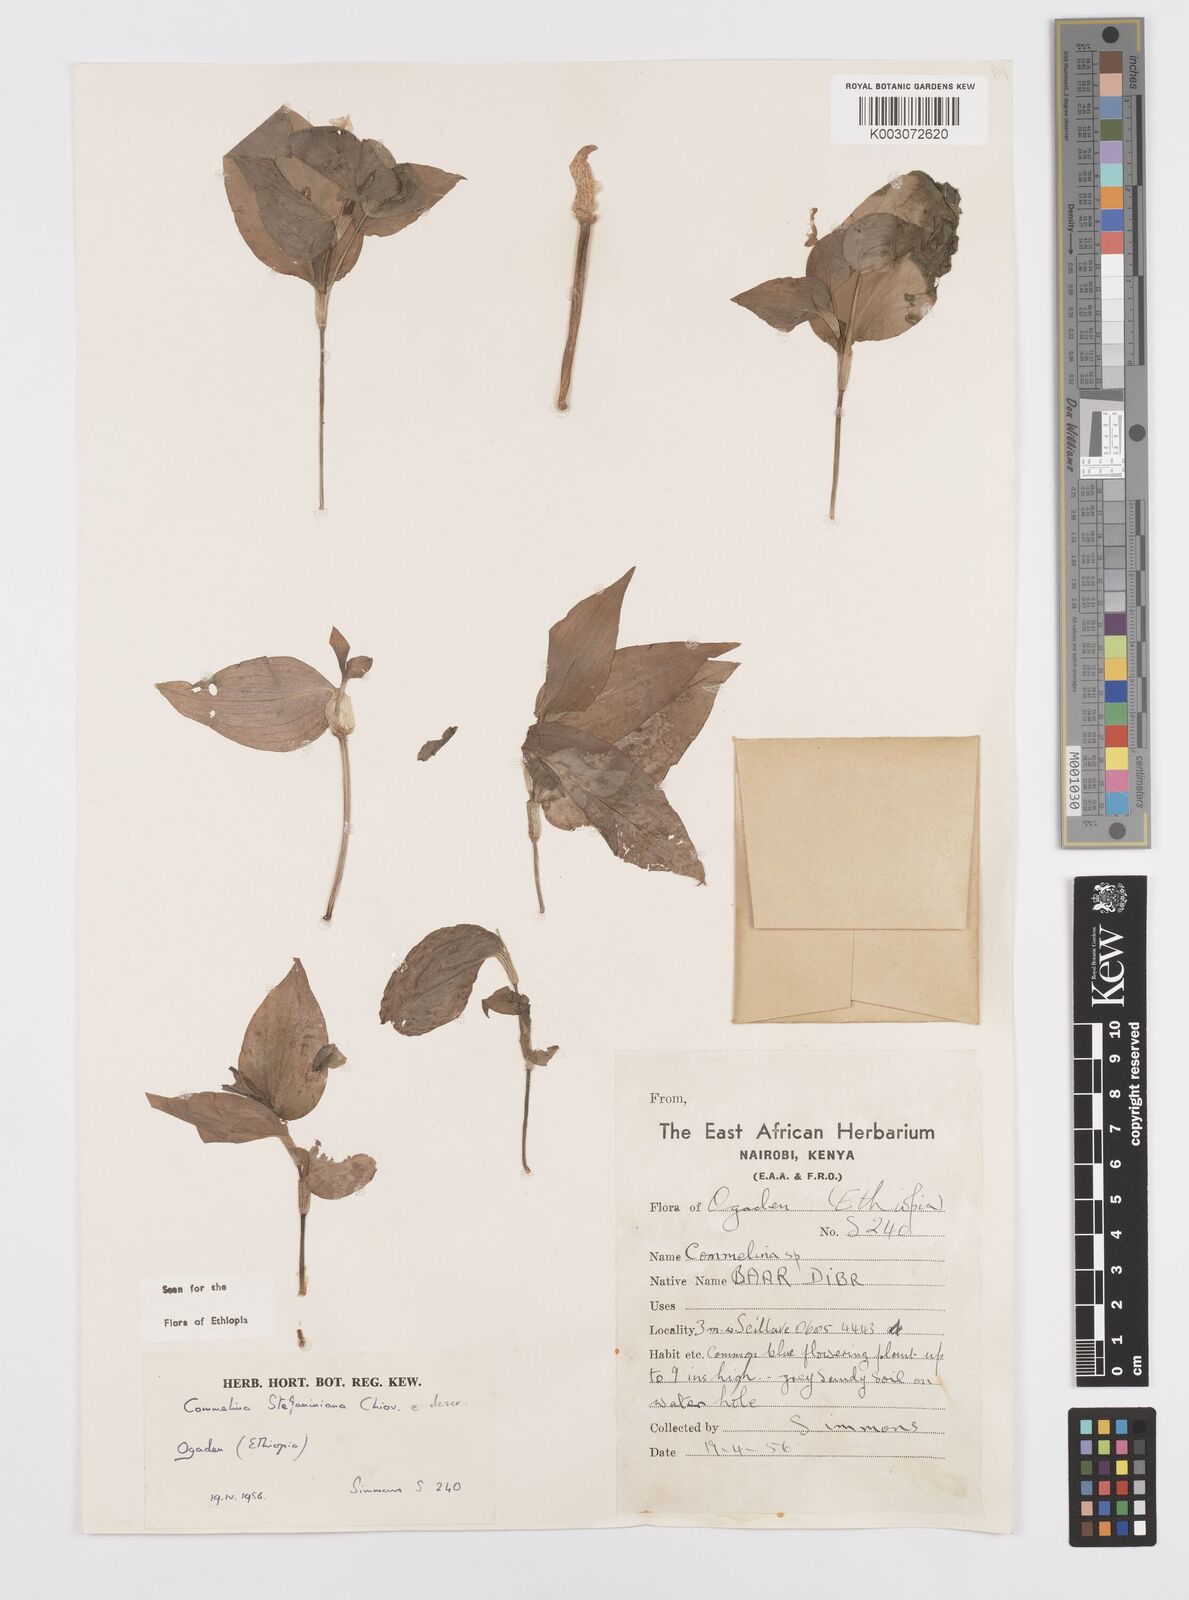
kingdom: Plantae
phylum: Tracheophyta
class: Liliopsida
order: Commelinales
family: Commelinaceae
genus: Commelina
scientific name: Commelina stefaniniana
